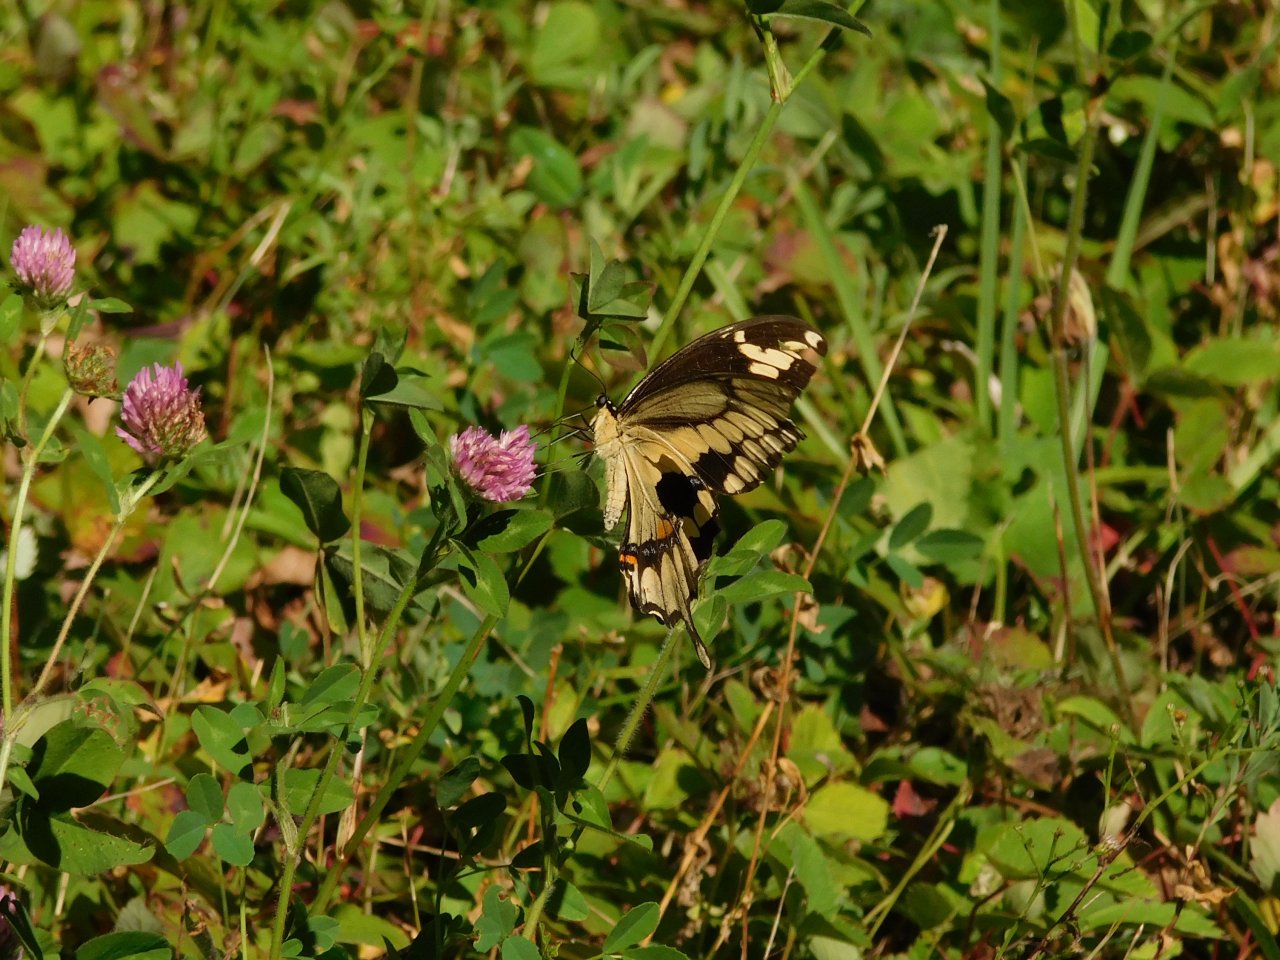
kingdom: Animalia
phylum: Arthropoda
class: Insecta
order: Lepidoptera
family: Papilionidae
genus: Papilio
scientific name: Papilio cresphontes
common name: Eastern Giant Swallowtail
